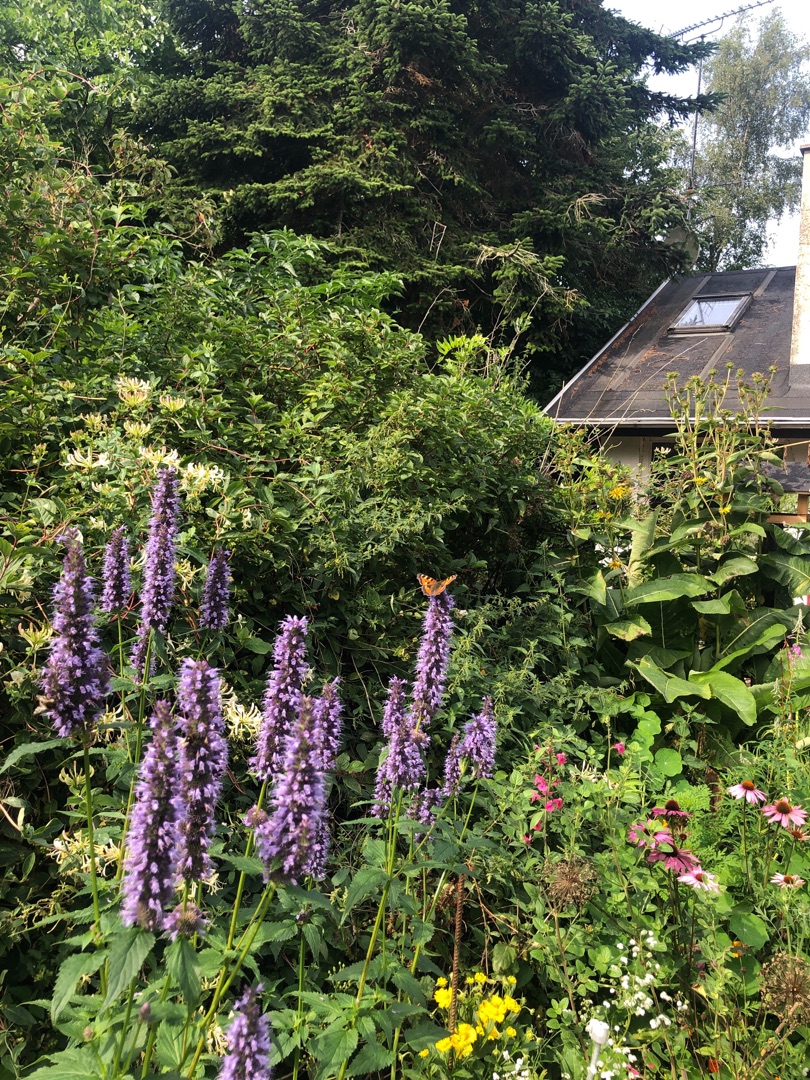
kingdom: Animalia
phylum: Arthropoda
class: Insecta
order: Lepidoptera
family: Nymphalidae
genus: Aglais
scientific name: Aglais urticae
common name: Nældens takvinge
